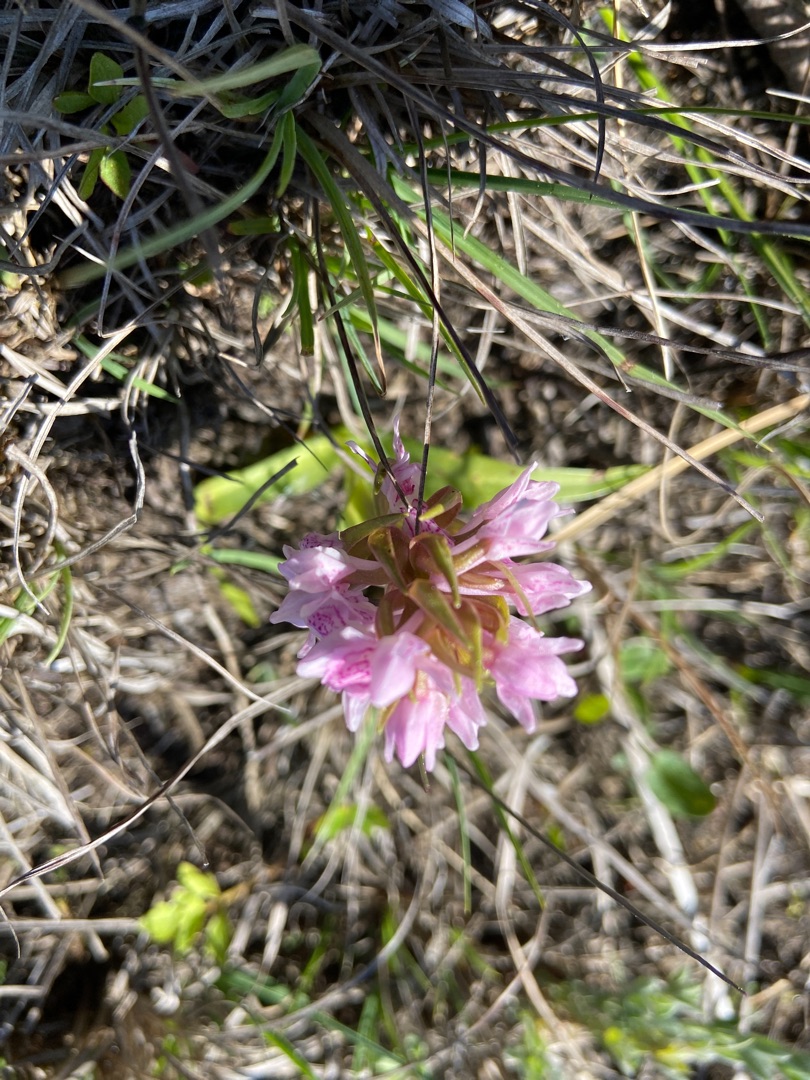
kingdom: Plantae
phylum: Tracheophyta
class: Liliopsida
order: Asparagales
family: Orchidaceae
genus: Dactylorhiza
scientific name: Dactylorhiza incarnata
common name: Kødfarvet gøgeurt
